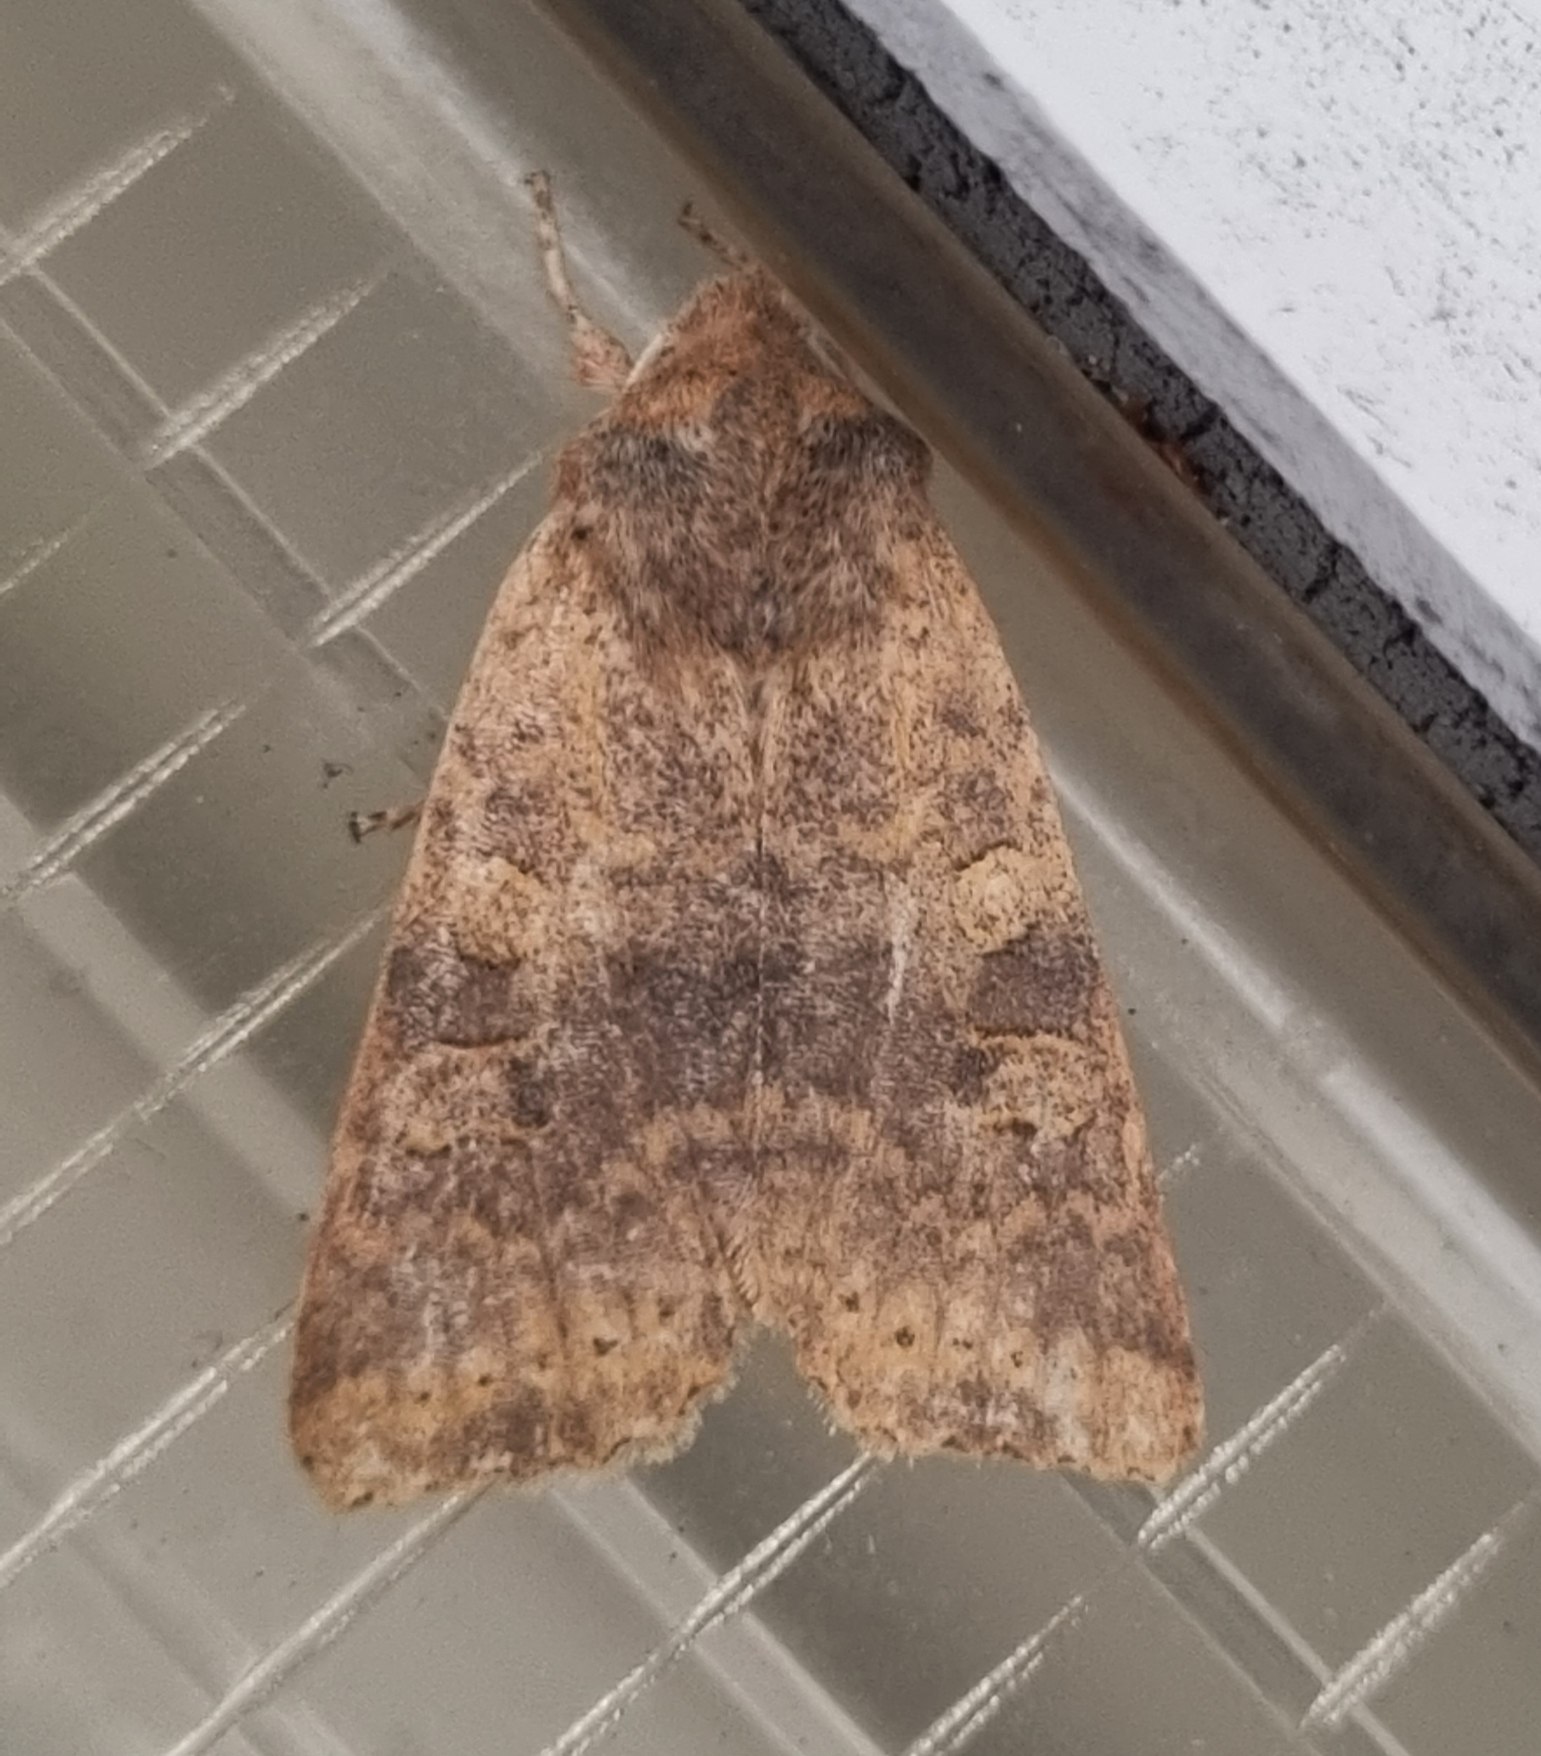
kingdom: Animalia
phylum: Arthropoda
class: Insecta
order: Lepidoptera
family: Noctuidae
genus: Xanthia
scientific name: Xanthia gilvago
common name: Elmeguldugle
